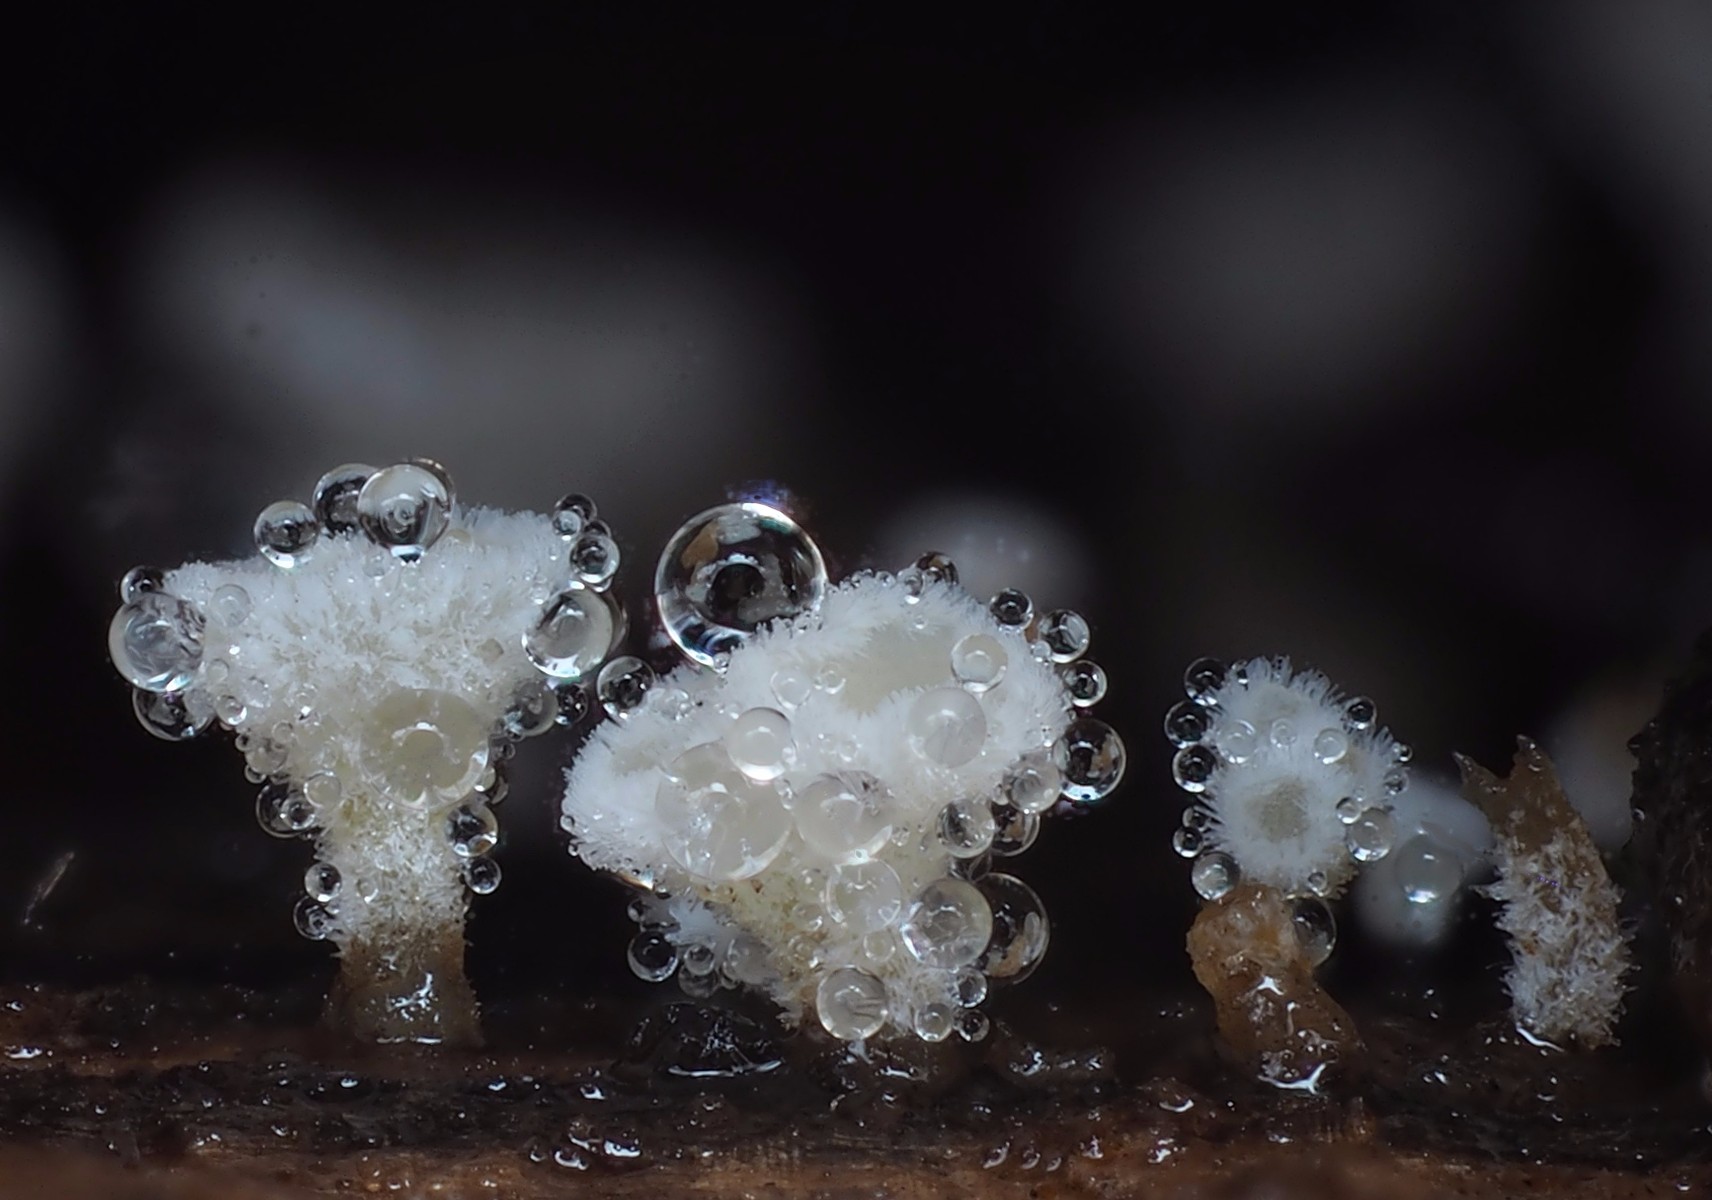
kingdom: Fungi
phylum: Ascomycota
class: Leotiomycetes
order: Helotiales
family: Lachnaceae
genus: Lachnum
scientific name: Lachnum
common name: frynseskive
